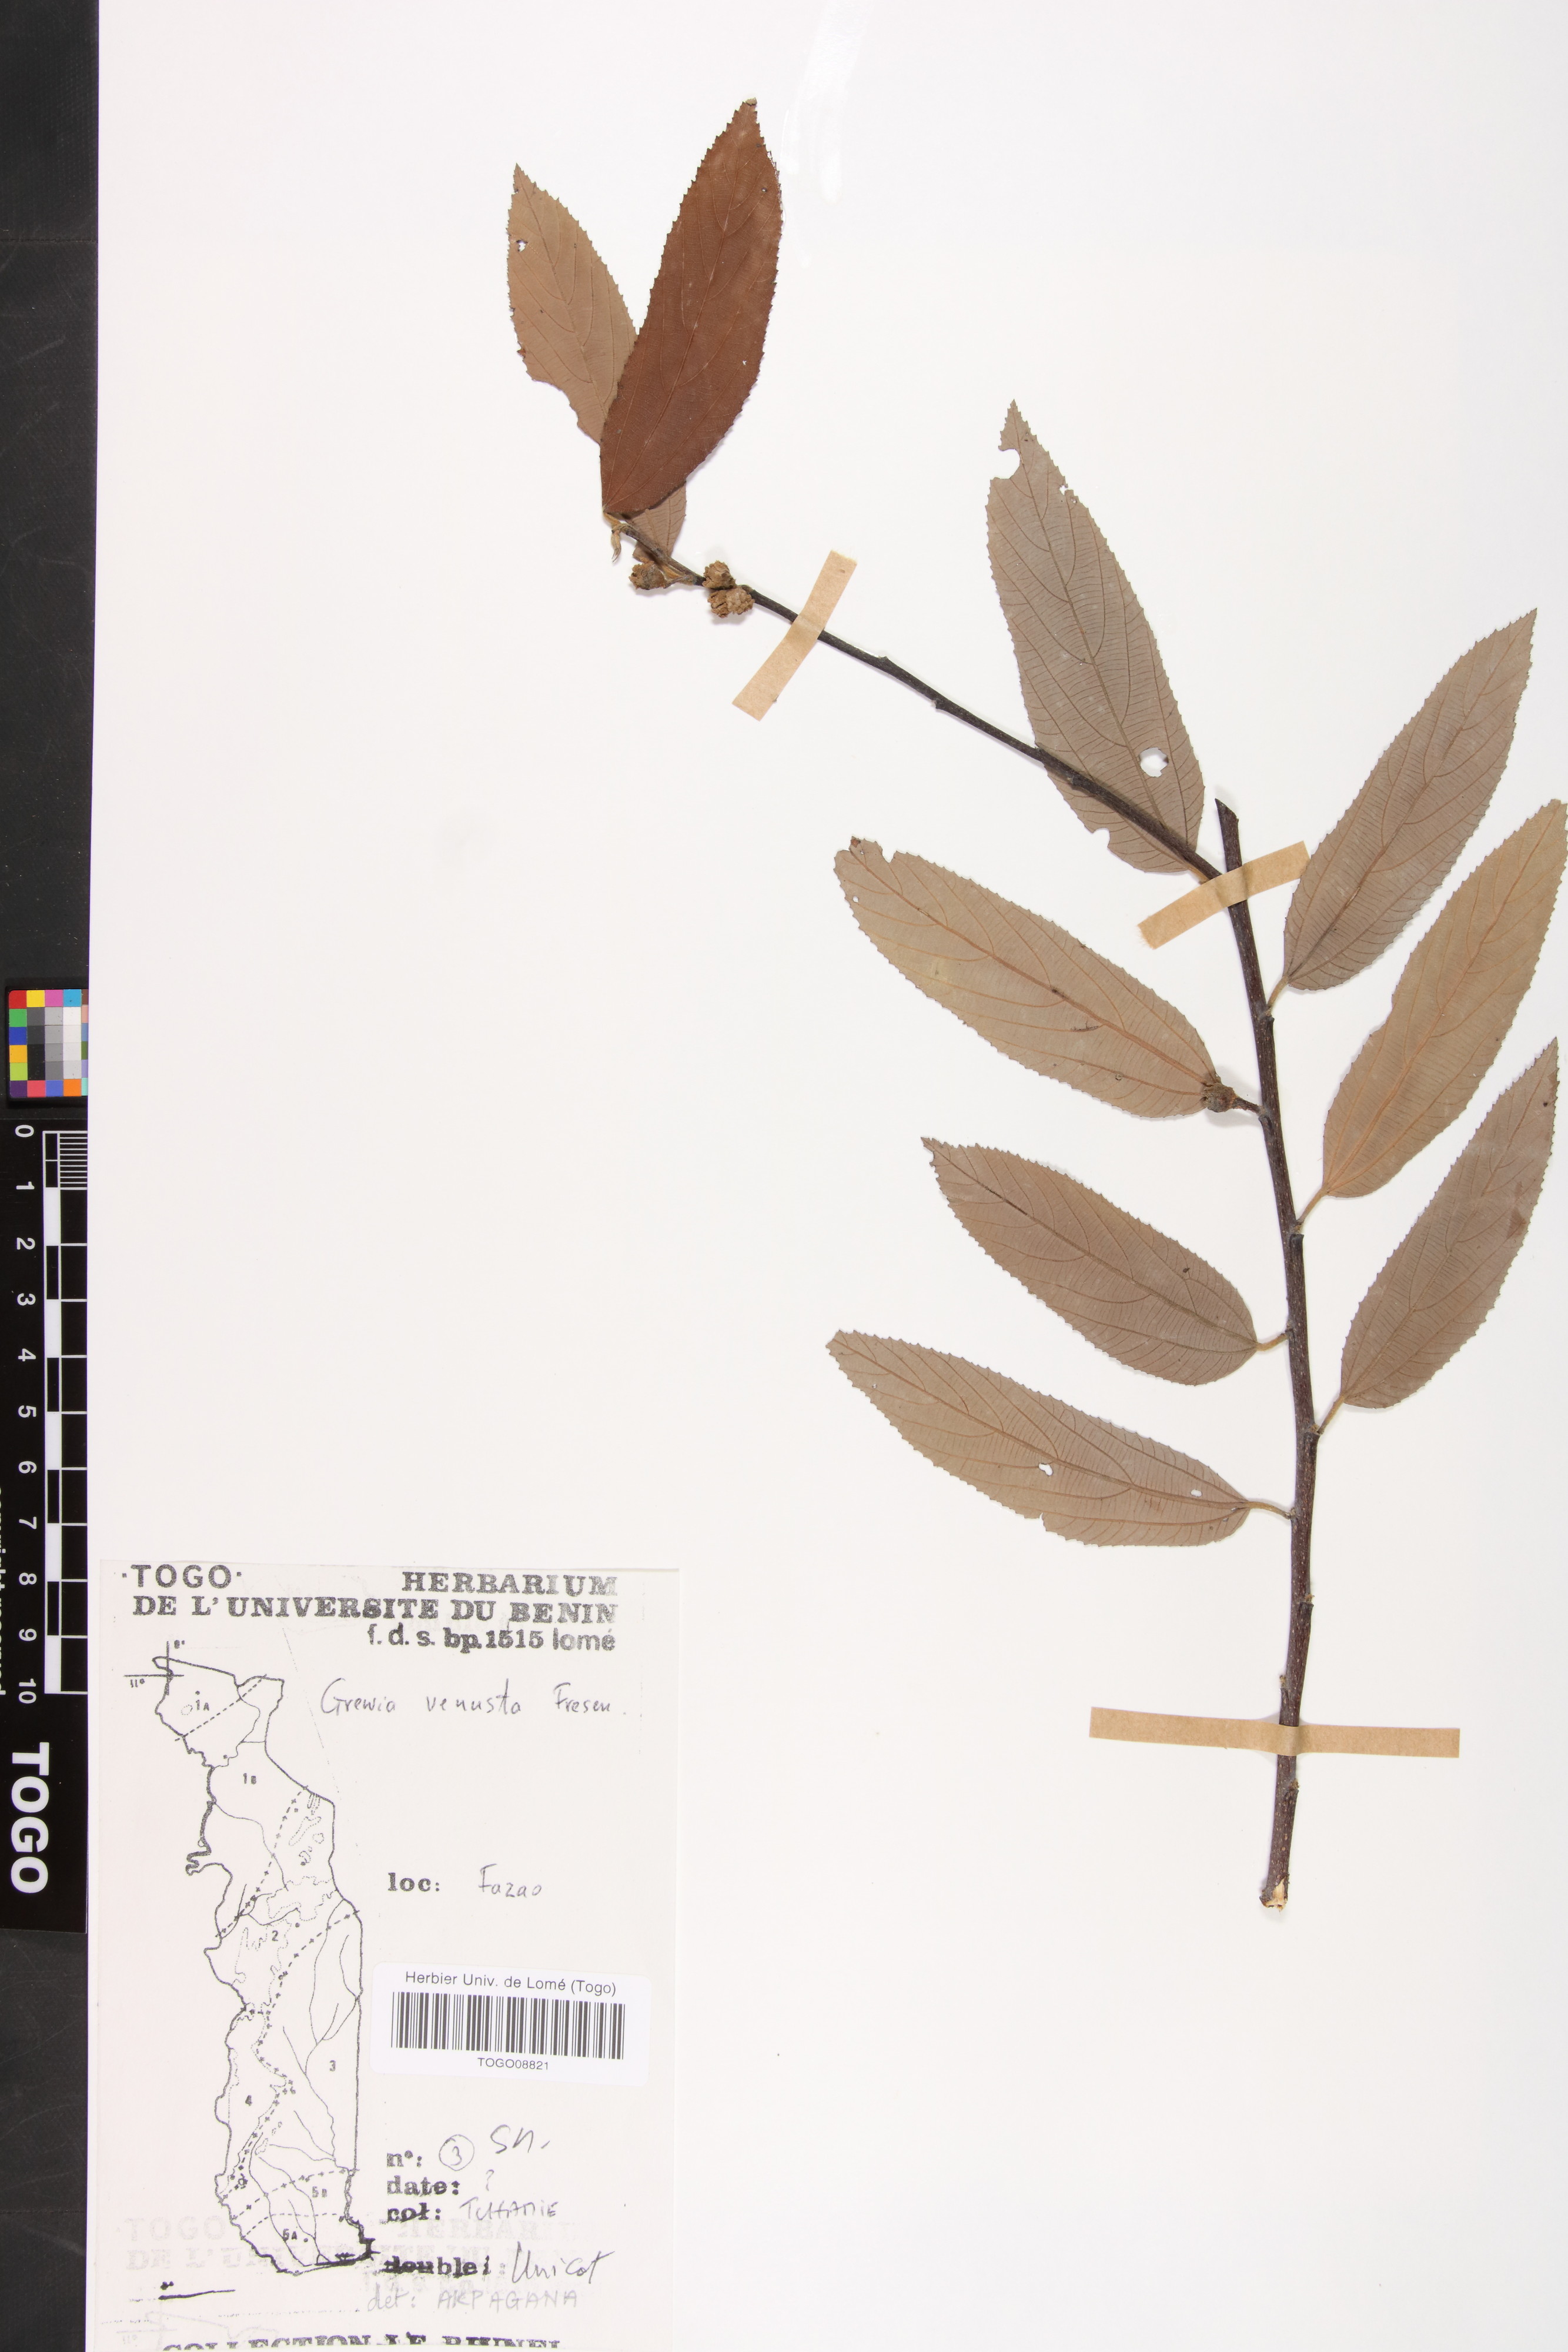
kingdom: Plantae
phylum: Tracheophyta
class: Magnoliopsida
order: Malvales
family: Malvaceae
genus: Grewia
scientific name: Grewia mollis
